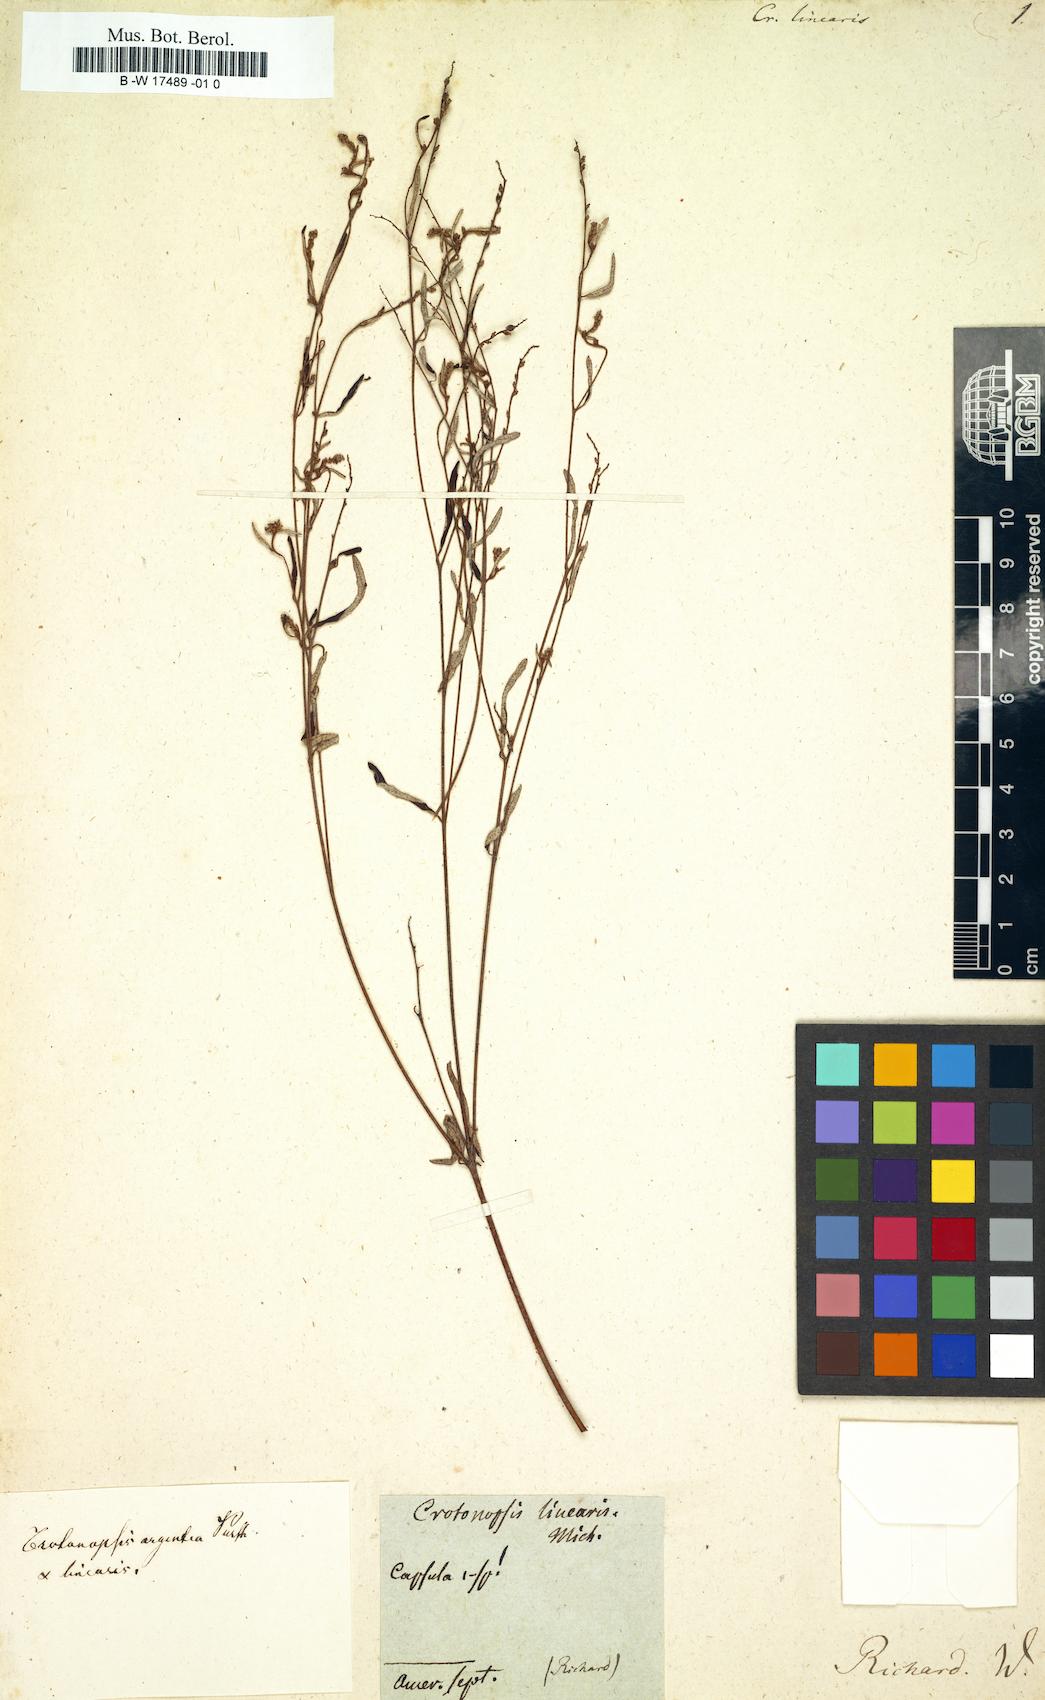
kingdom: Plantae
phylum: Tracheophyta
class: Magnoliopsida
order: Malpighiales
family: Euphorbiaceae
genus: Croton
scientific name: Croton michauxii
